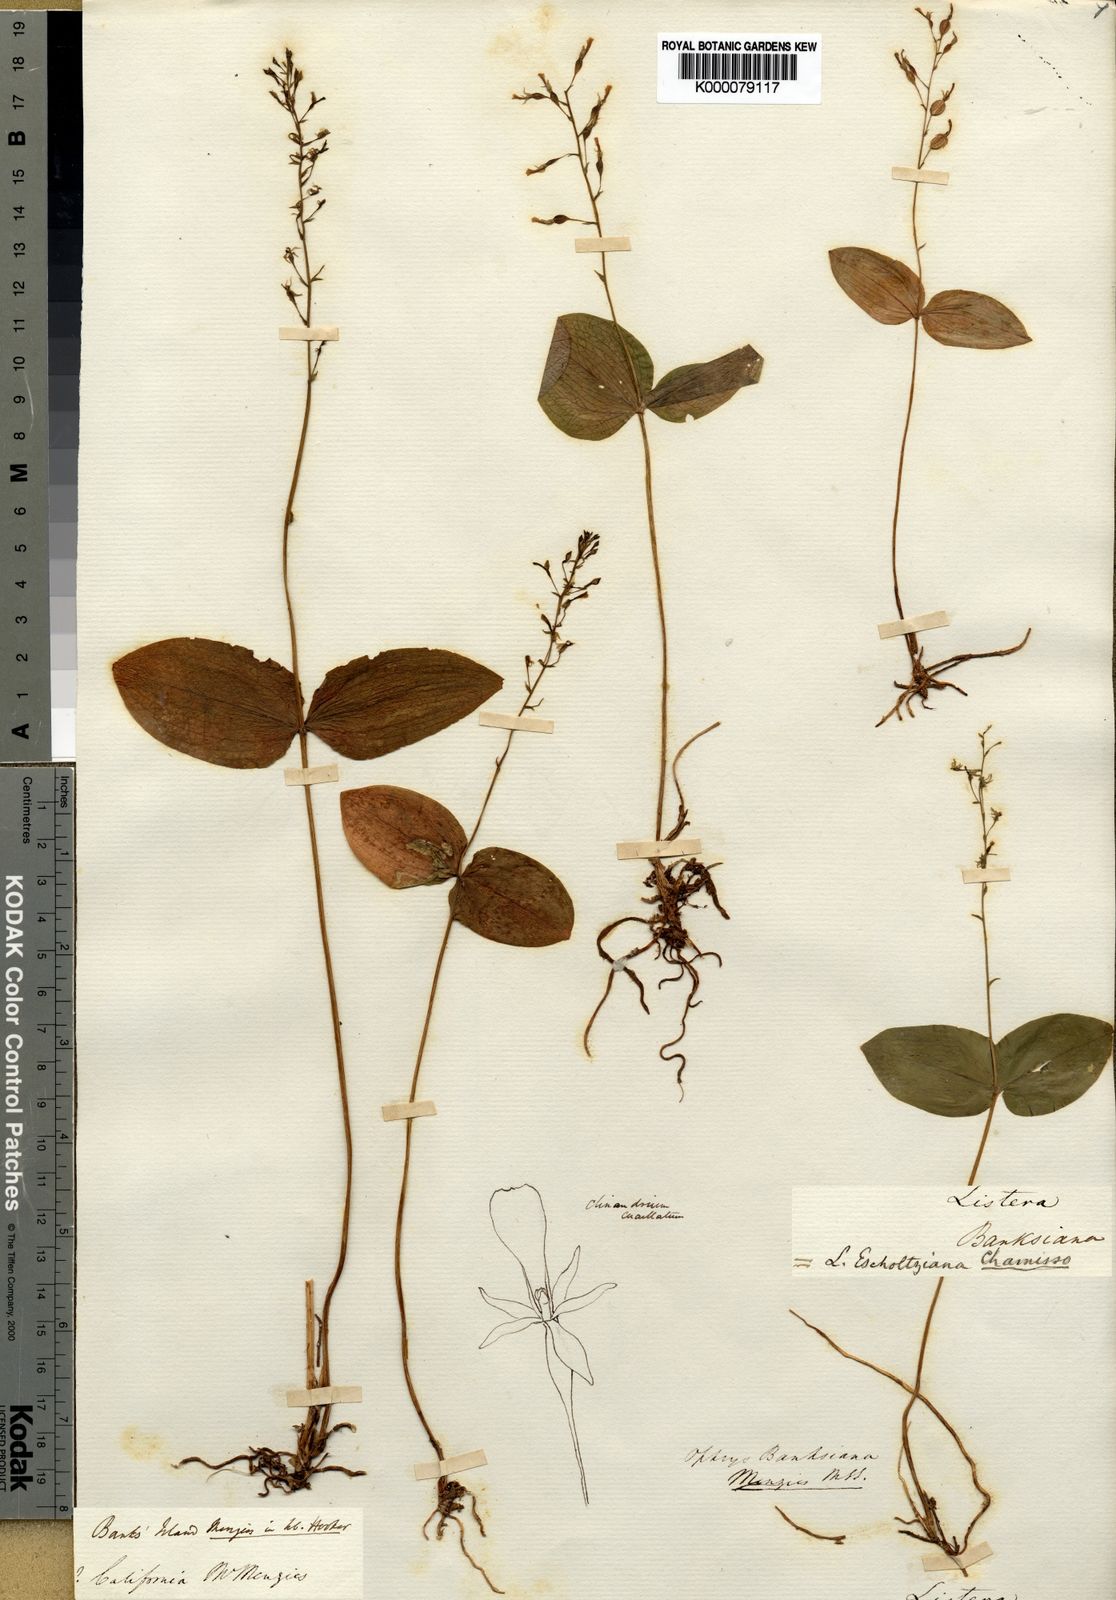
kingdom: Plantae
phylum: Tracheophyta
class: Liliopsida
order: Asparagales
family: Orchidaceae
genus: Neottia
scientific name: Neottia banksiana
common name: Northwestern twayblade
